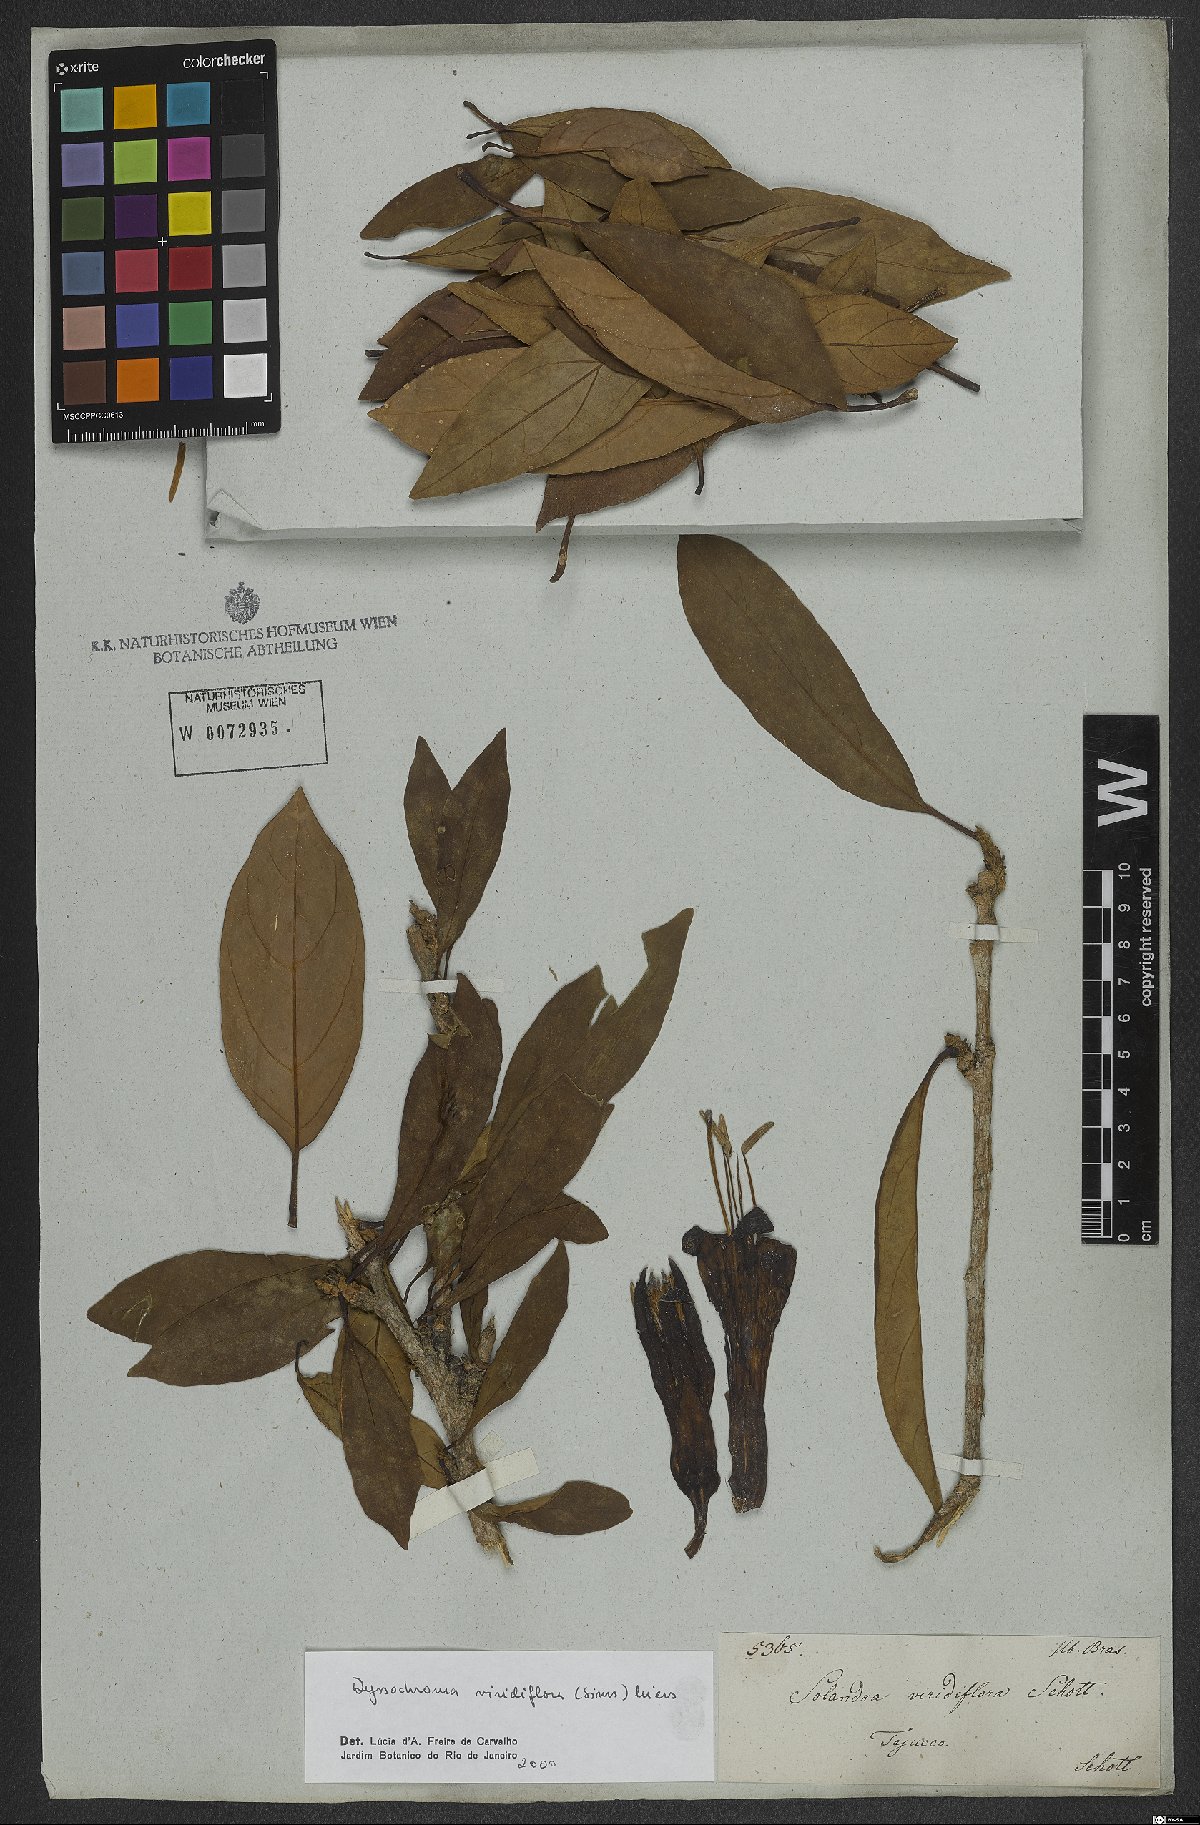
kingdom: Plantae
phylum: Tracheophyta
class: Magnoliopsida
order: Solanales
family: Solanaceae
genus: Dyssochroma
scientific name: Dyssochroma viridiflorum
